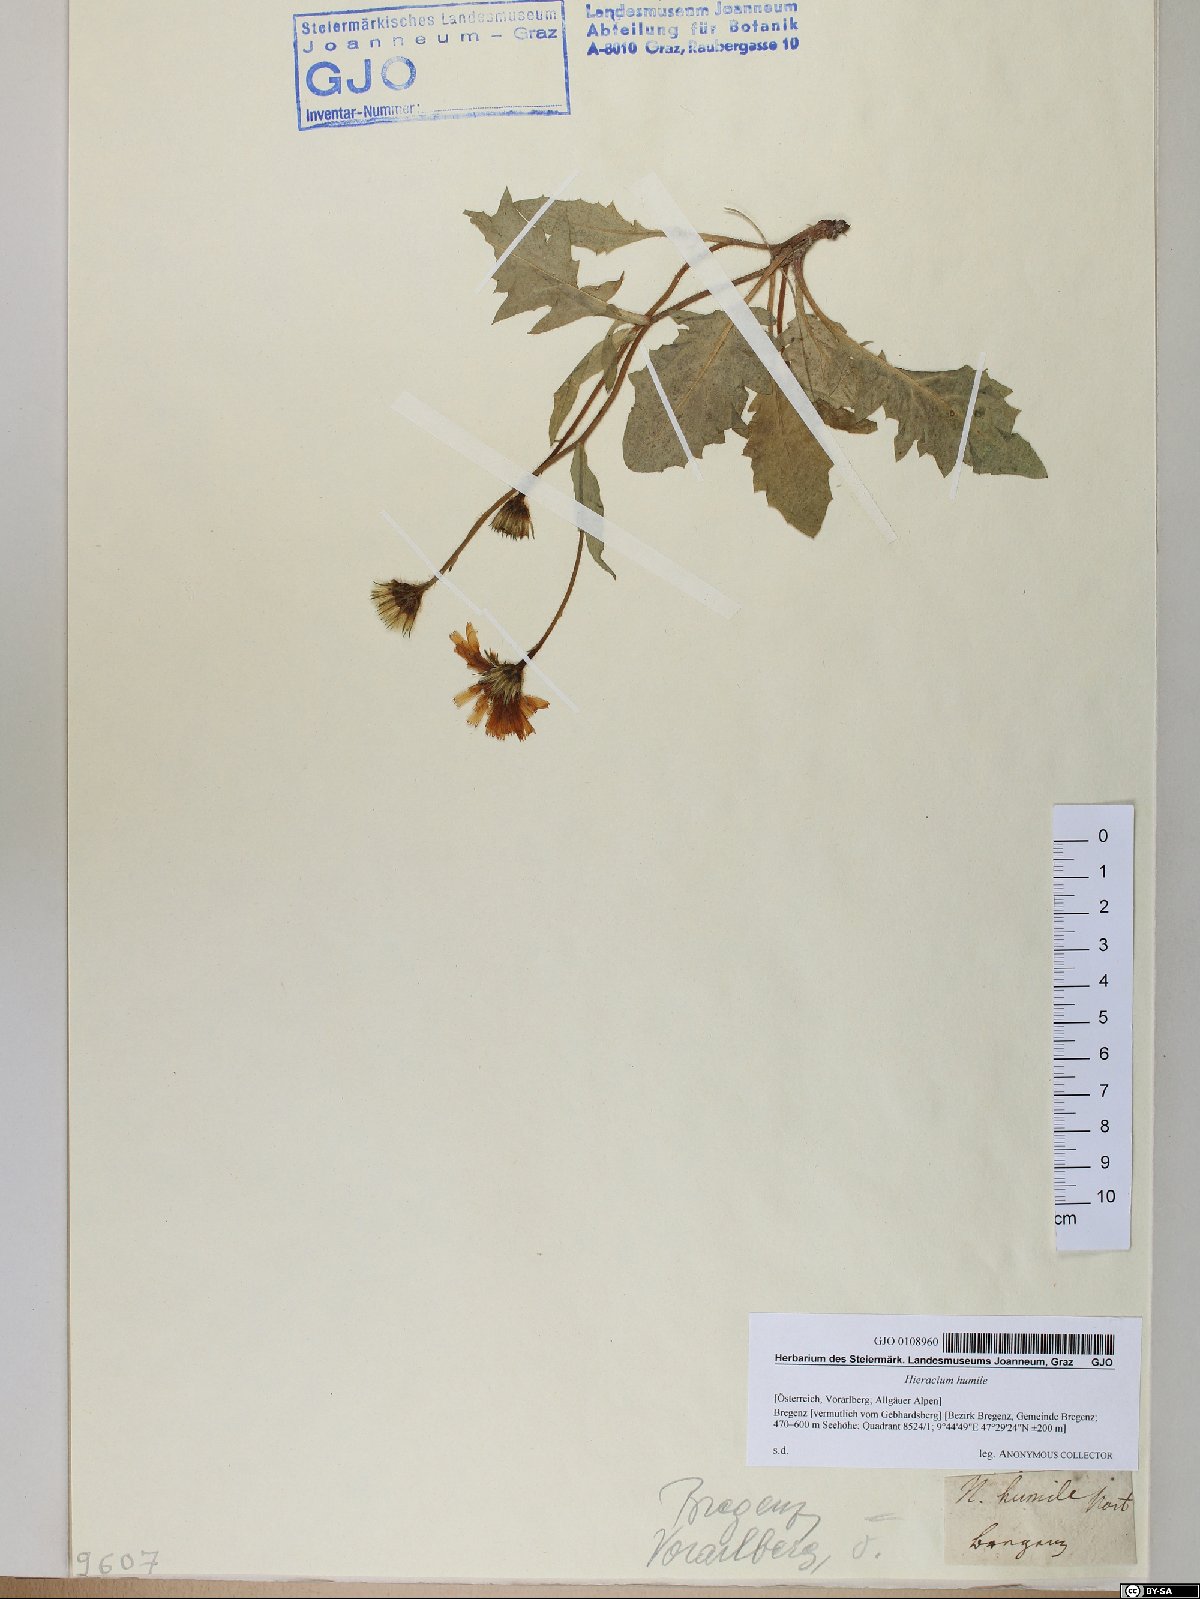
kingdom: Plantae
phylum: Tracheophyta
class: Magnoliopsida
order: Asterales
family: Asteraceae
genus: Hieracium
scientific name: Hieracium humile
